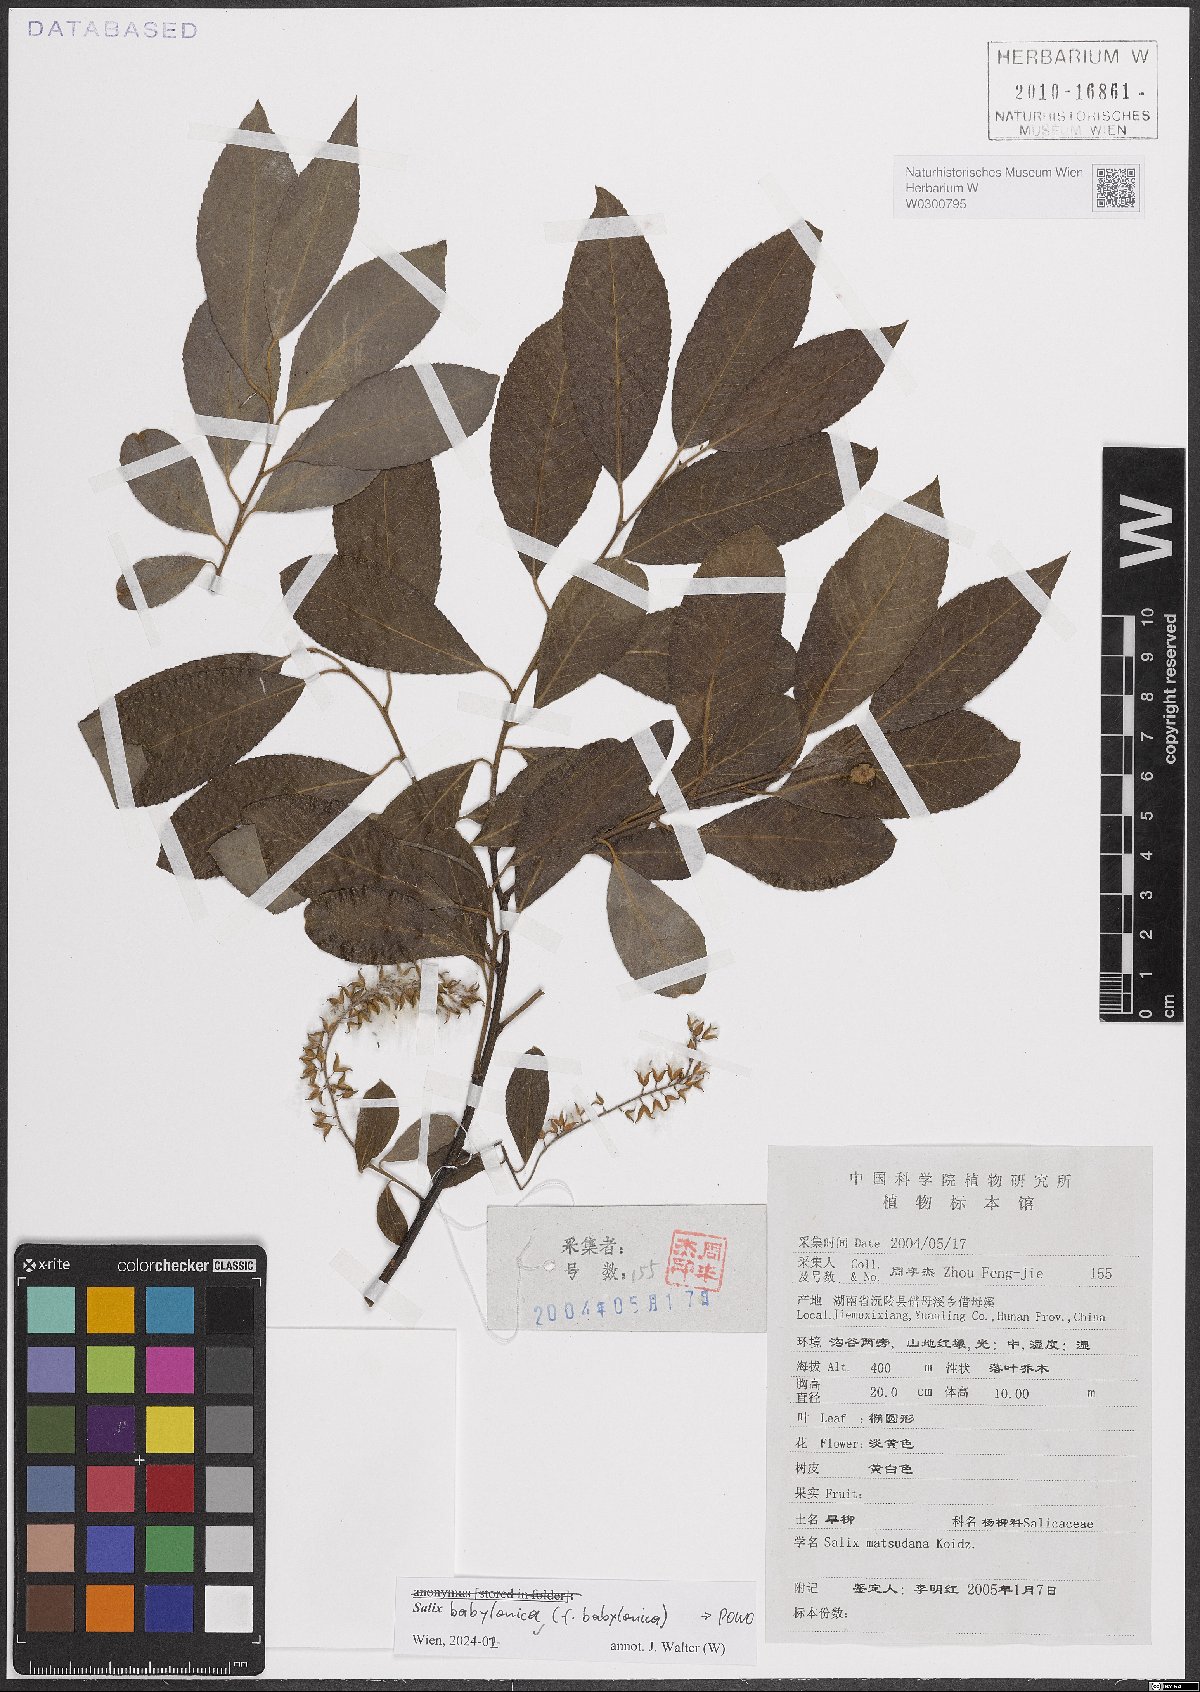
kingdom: Plantae
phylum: Tracheophyta
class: Magnoliopsida
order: Malpighiales
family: Salicaceae
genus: Salix
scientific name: Salix babylonica
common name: Weeping willow
